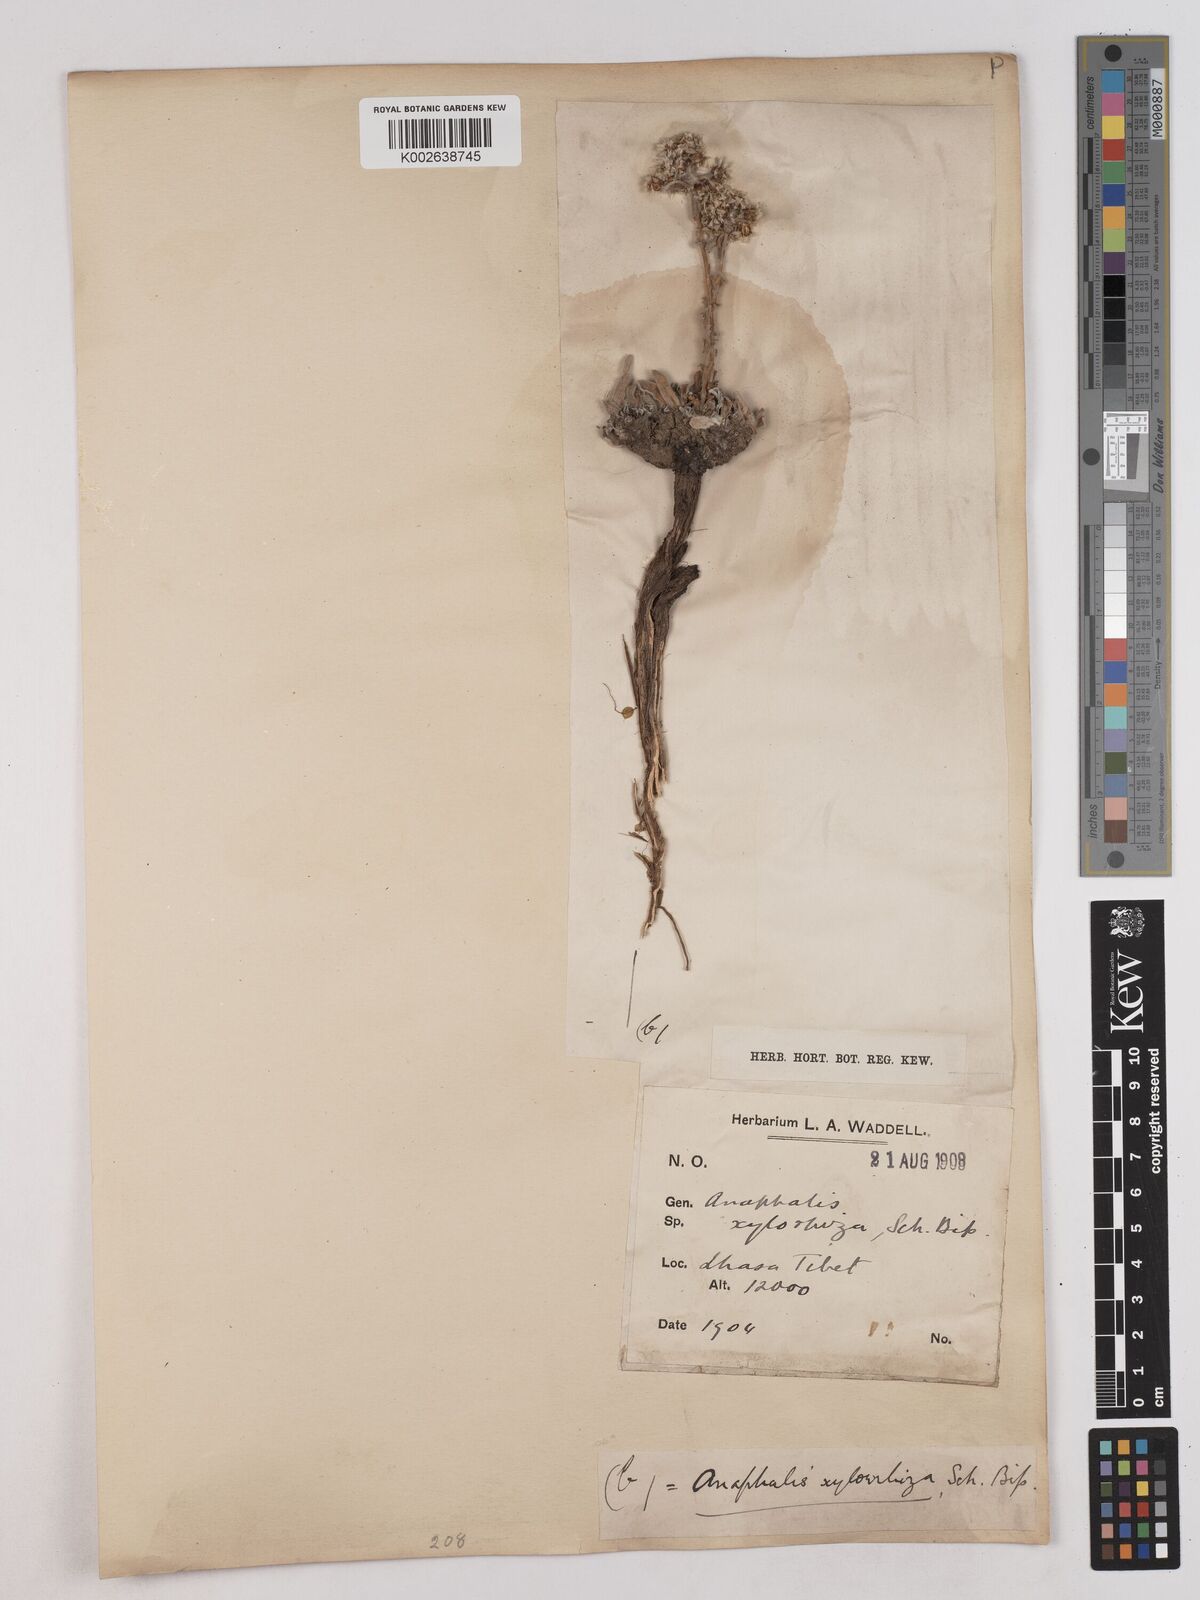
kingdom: Plantae
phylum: Tracheophyta
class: Magnoliopsida
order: Asterales
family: Asteraceae
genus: Anaphalis
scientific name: Anaphalis xylorhiza
